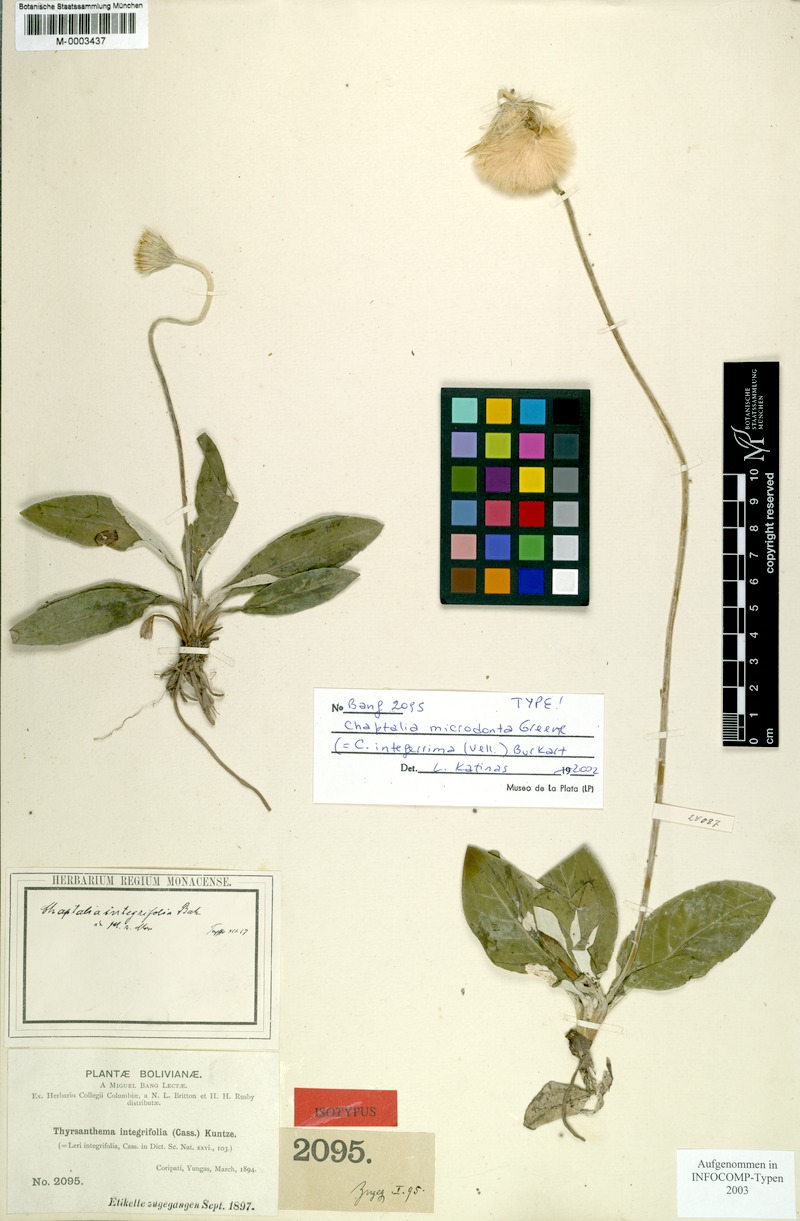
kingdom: Plantae
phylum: Tracheophyta
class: Magnoliopsida
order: Asterales
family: Asteraceae
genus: Chaptalia
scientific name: Chaptalia integerrima
